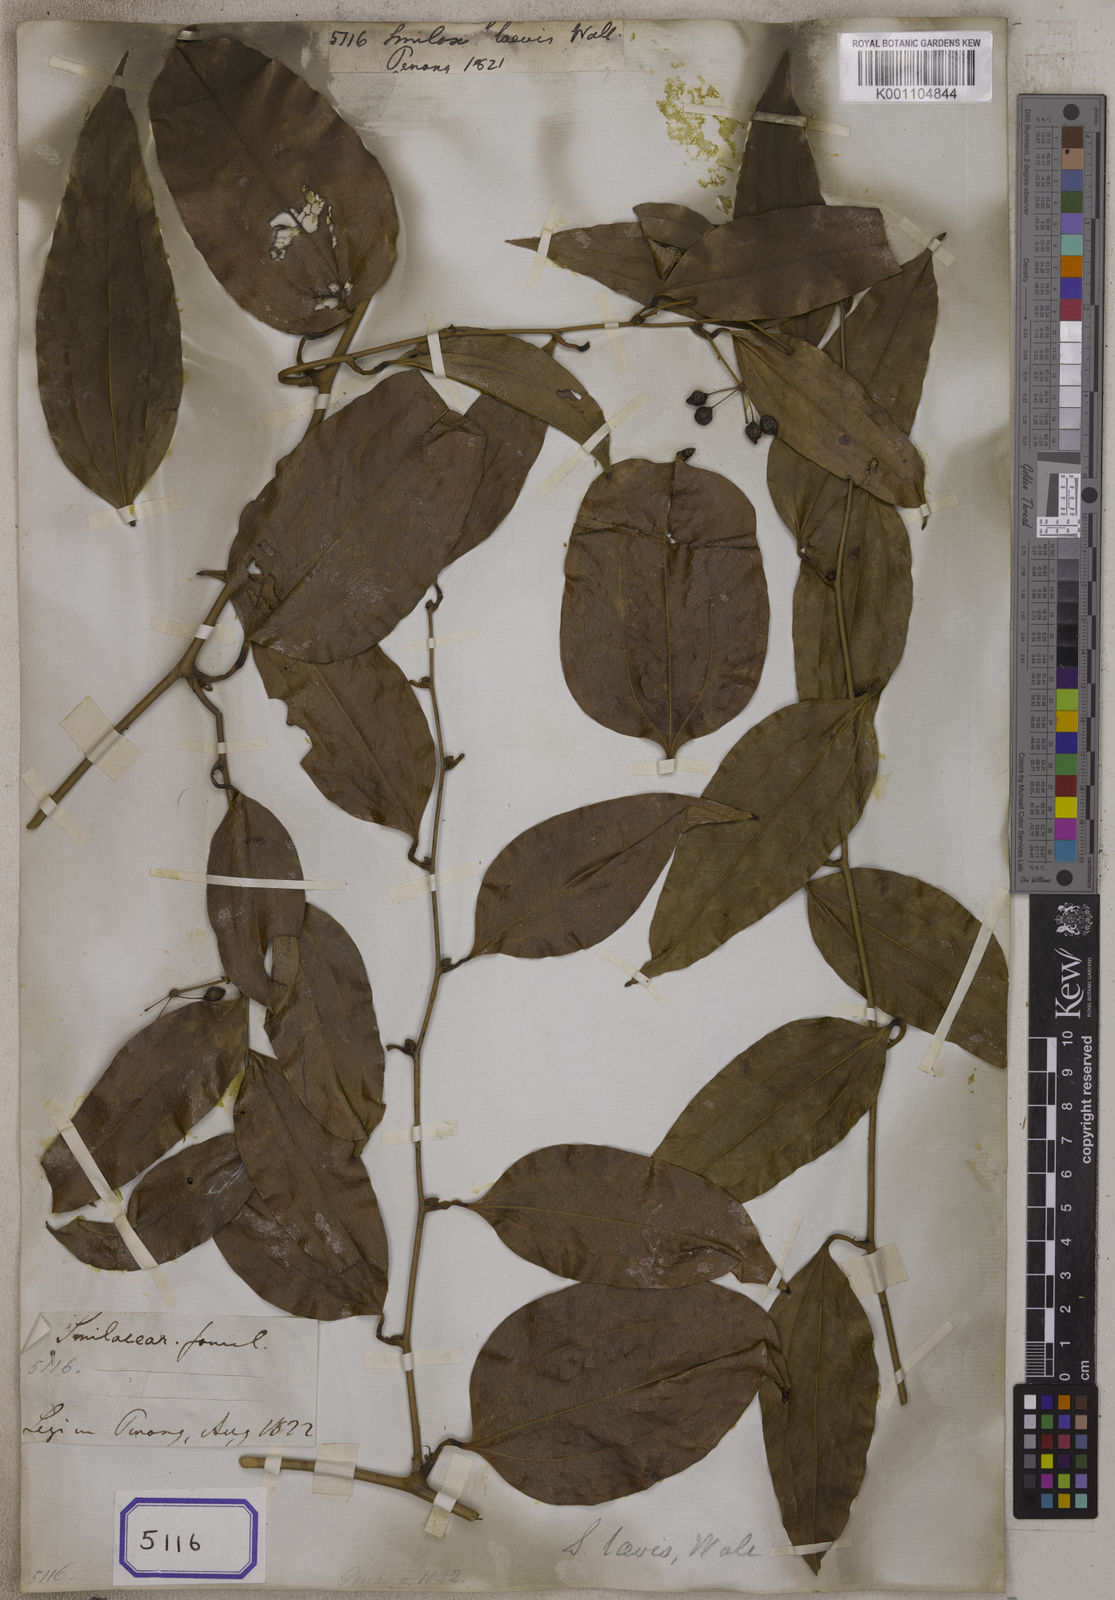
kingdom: Plantae
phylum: Tracheophyta
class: Liliopsida
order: Liliales
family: Smilacaceae
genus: Smilax
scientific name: Smilax
